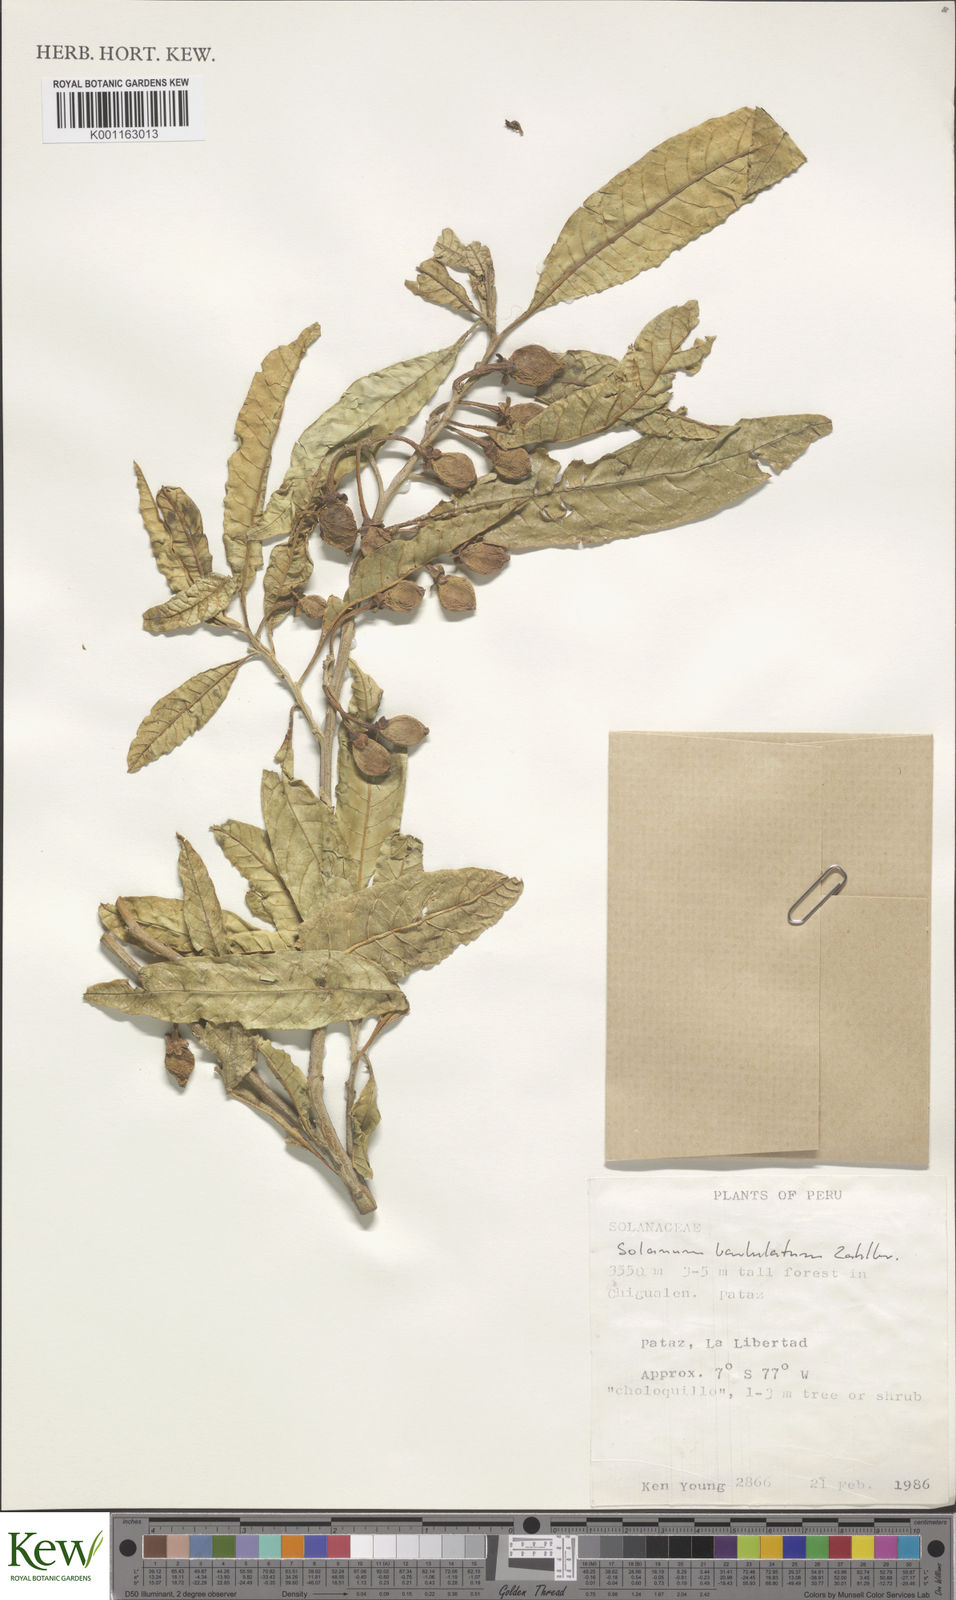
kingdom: Plantae
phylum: Tracheophyta
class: Magnoliopsida
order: Solanales
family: Solanaceae
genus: Solanum
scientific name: Solanum barbulatum
